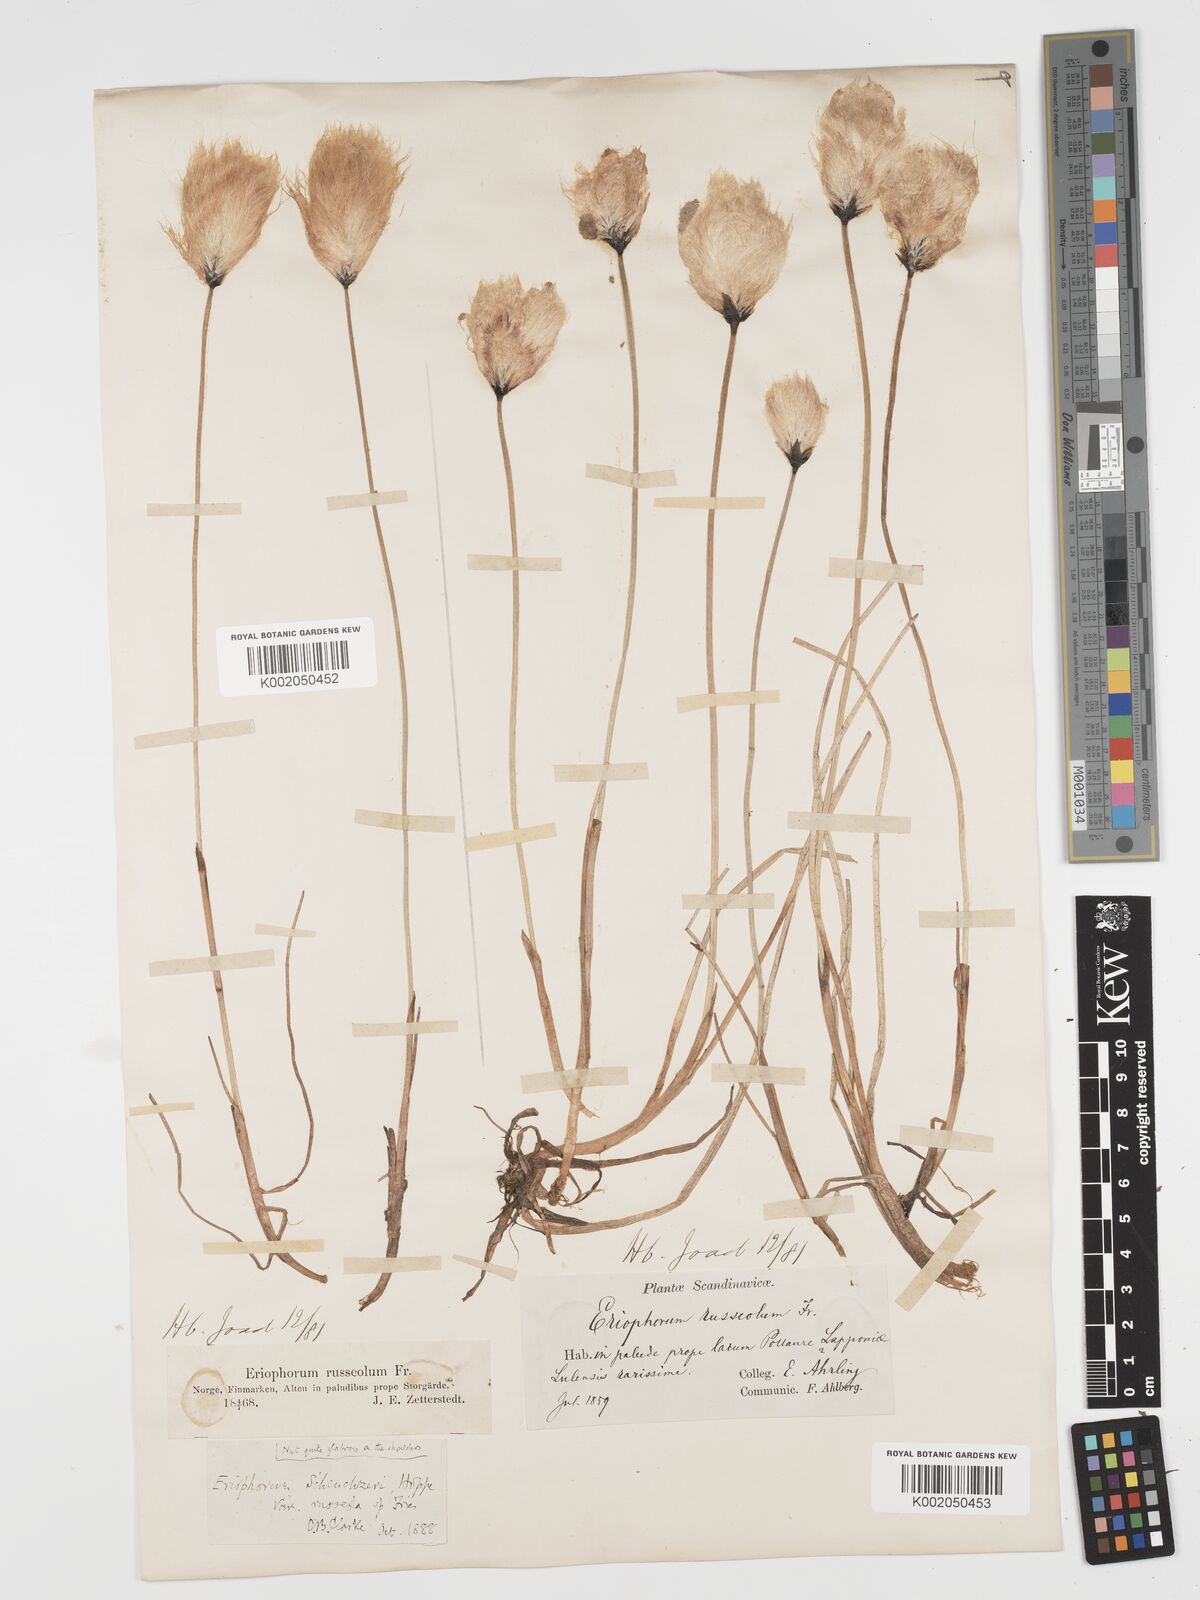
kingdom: Plantae
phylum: Tracheophyta
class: Liliopsida
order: Poales
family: Cyperaceae
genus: Eriophorum
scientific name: Eriophorum scheuchzeri
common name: Scheuchzer's cottongrass
